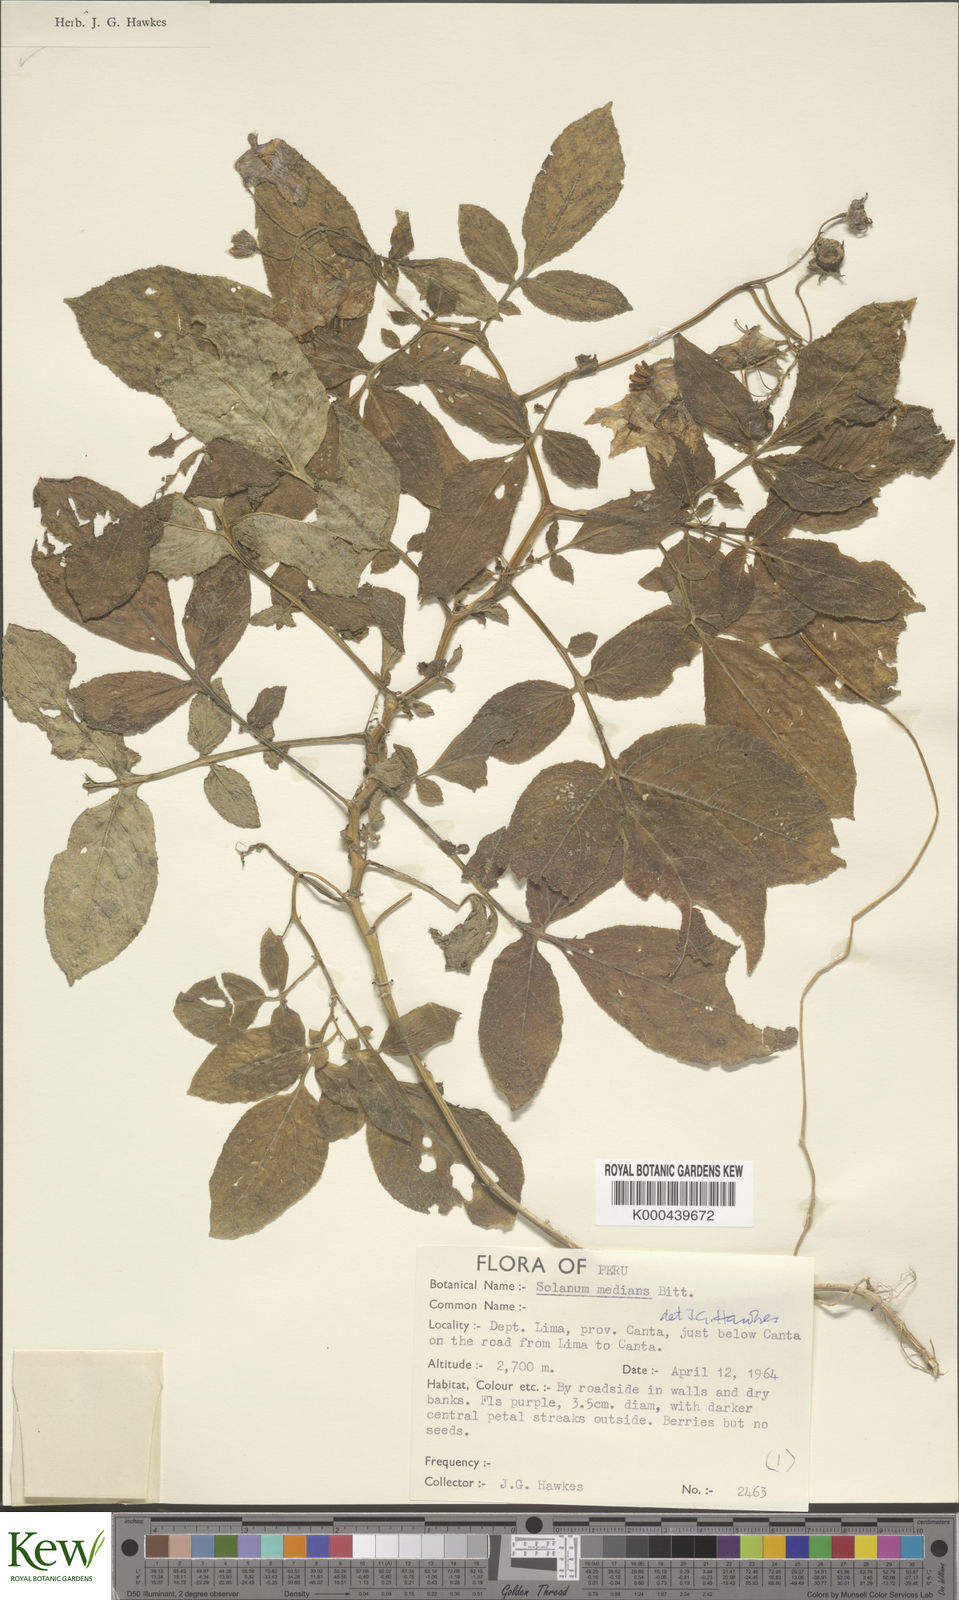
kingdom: Plantae
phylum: Tracheophyta
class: Magnoliopsida
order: Solanales
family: Solanaceae
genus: Solanum
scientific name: Solanum medians
